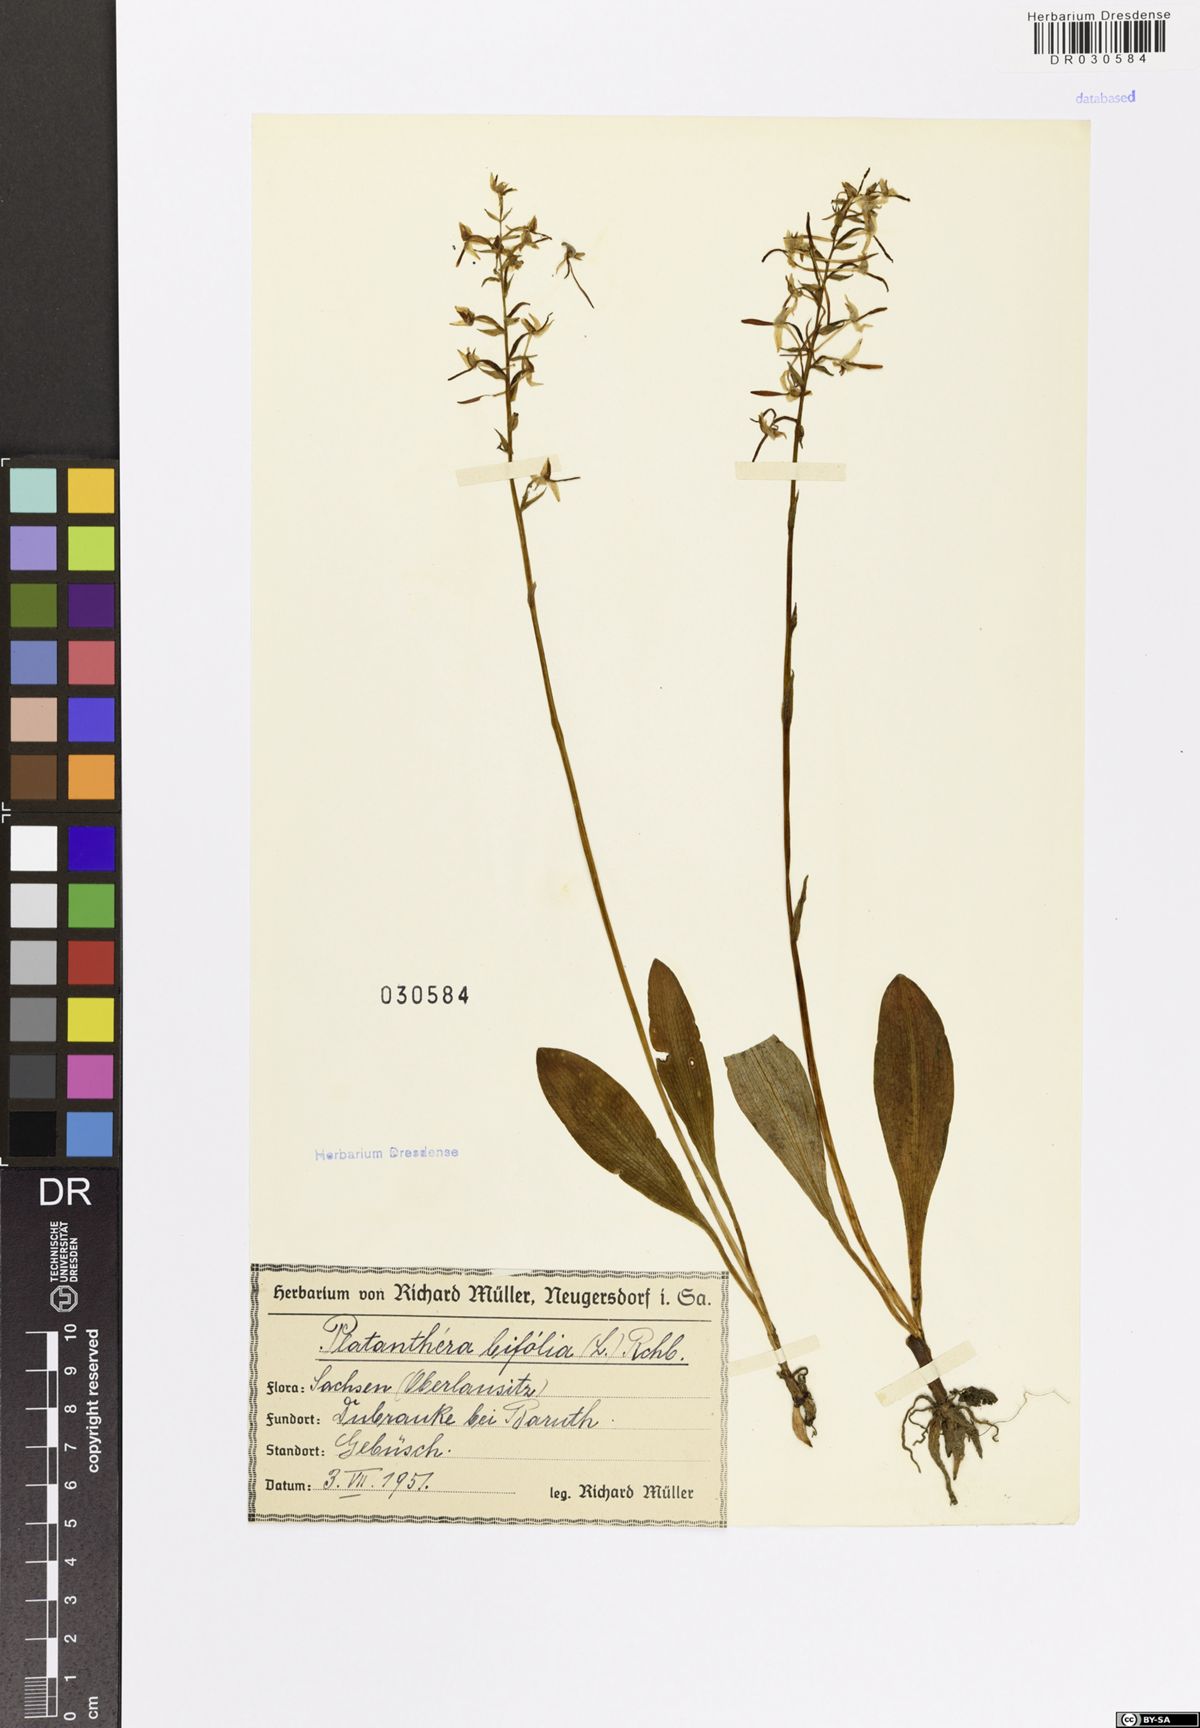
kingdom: Plantae
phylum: Tracheophyta
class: Liliopsida
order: Asparagales
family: Orchidaceae
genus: Platanthera
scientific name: Platanthera bifolia
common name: Lesser butterfly-orchid
